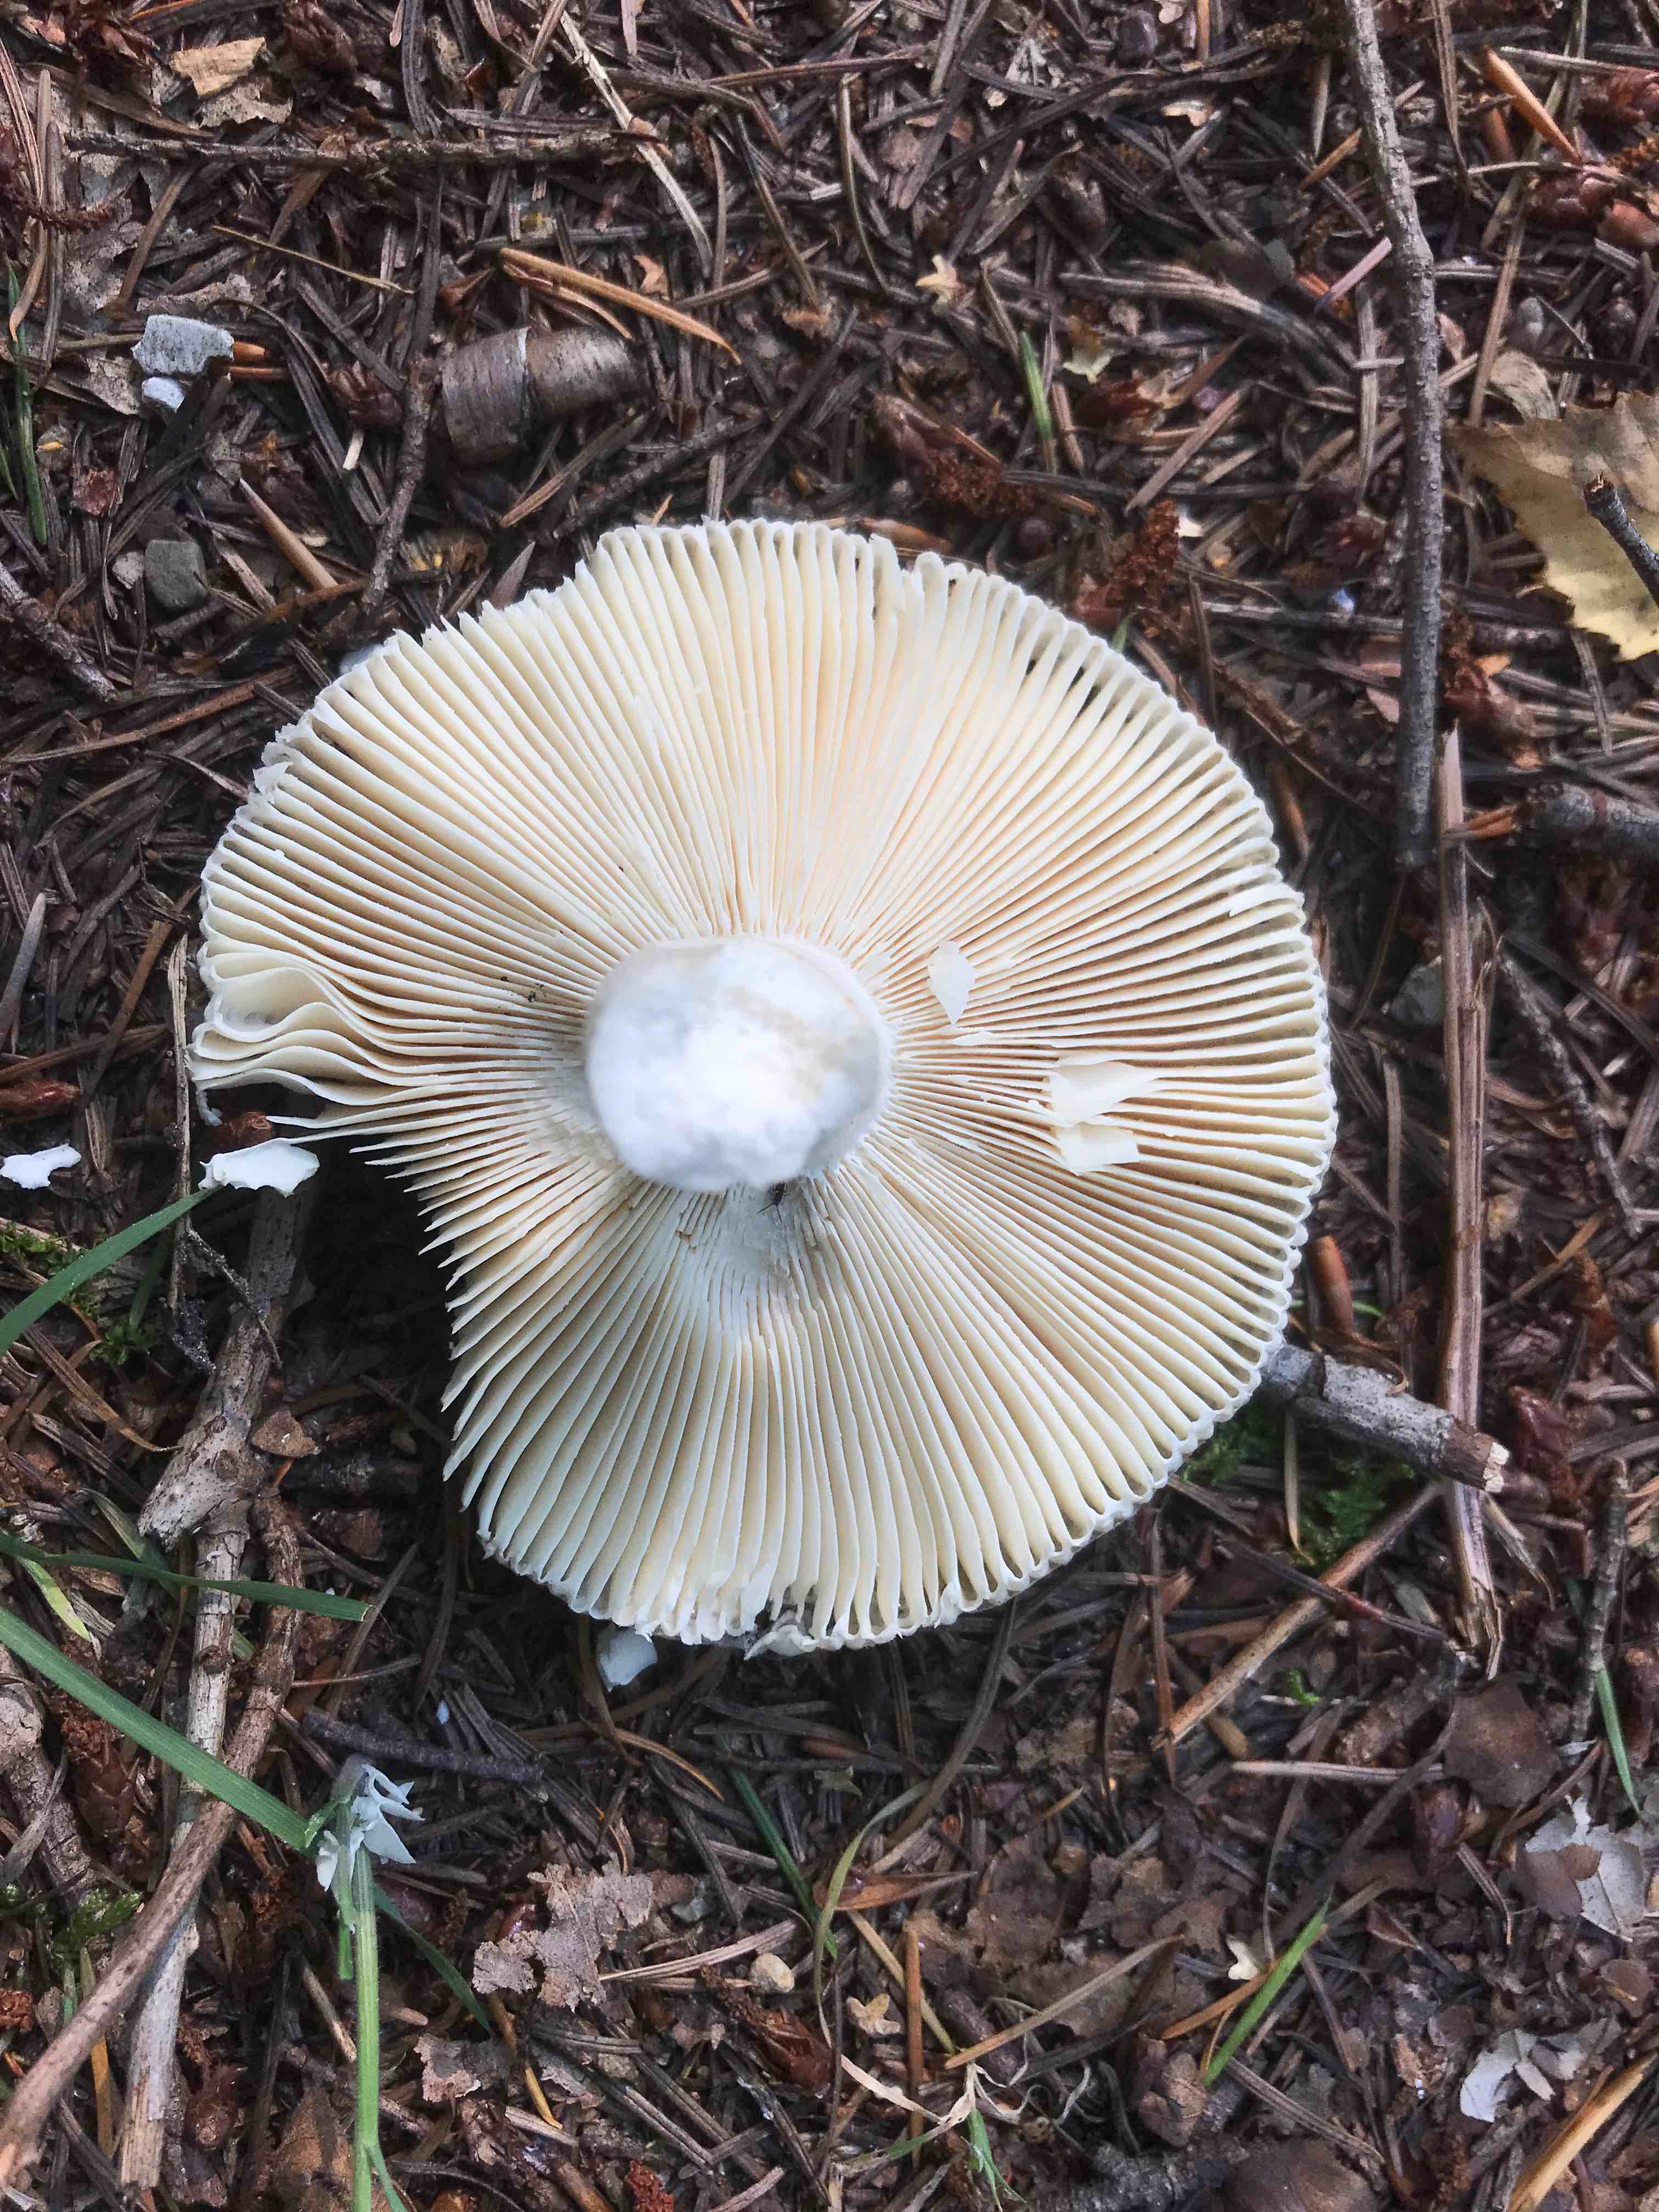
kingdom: Fungi
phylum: Basidiomycota
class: Agaricomycetes
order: Russulales
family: Russulaceae
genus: Russula
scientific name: Russula
